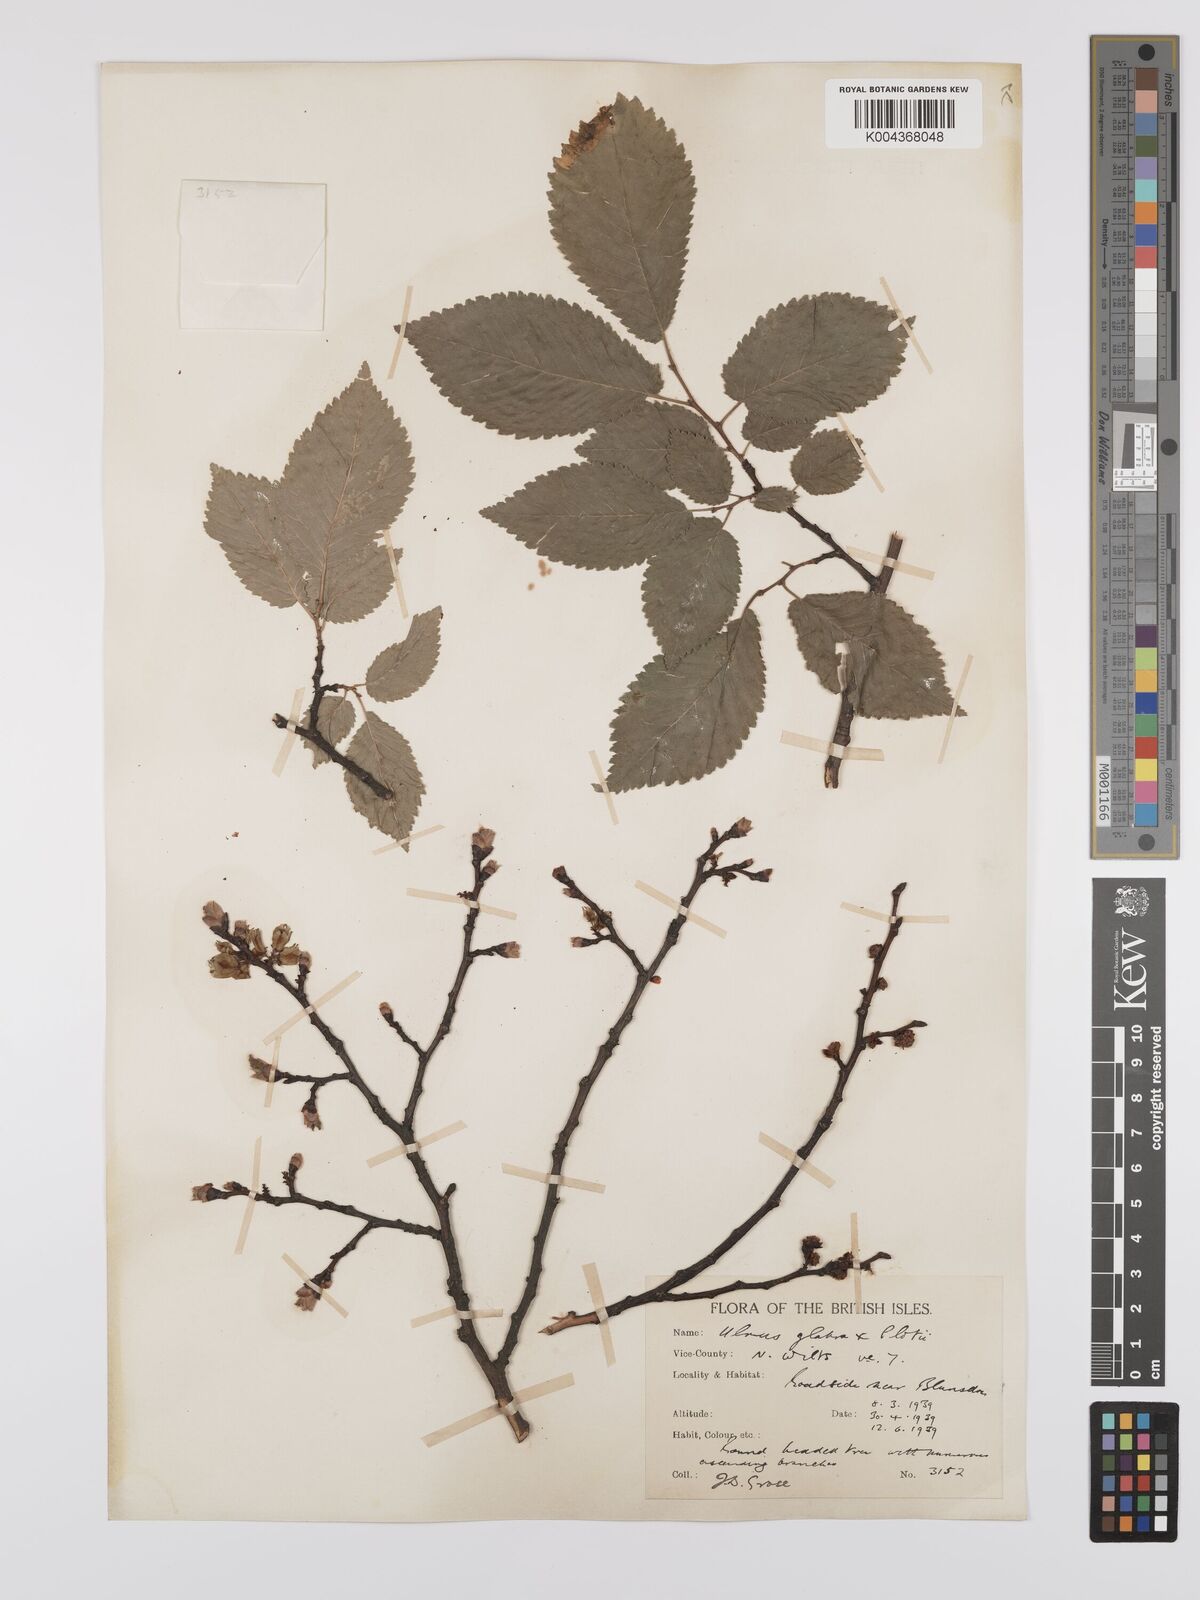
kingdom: Plantae
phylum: Tracheophyta
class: Magnoliopsida
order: Rosales
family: Ulmaceae
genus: Ulmus
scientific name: Ulmus
